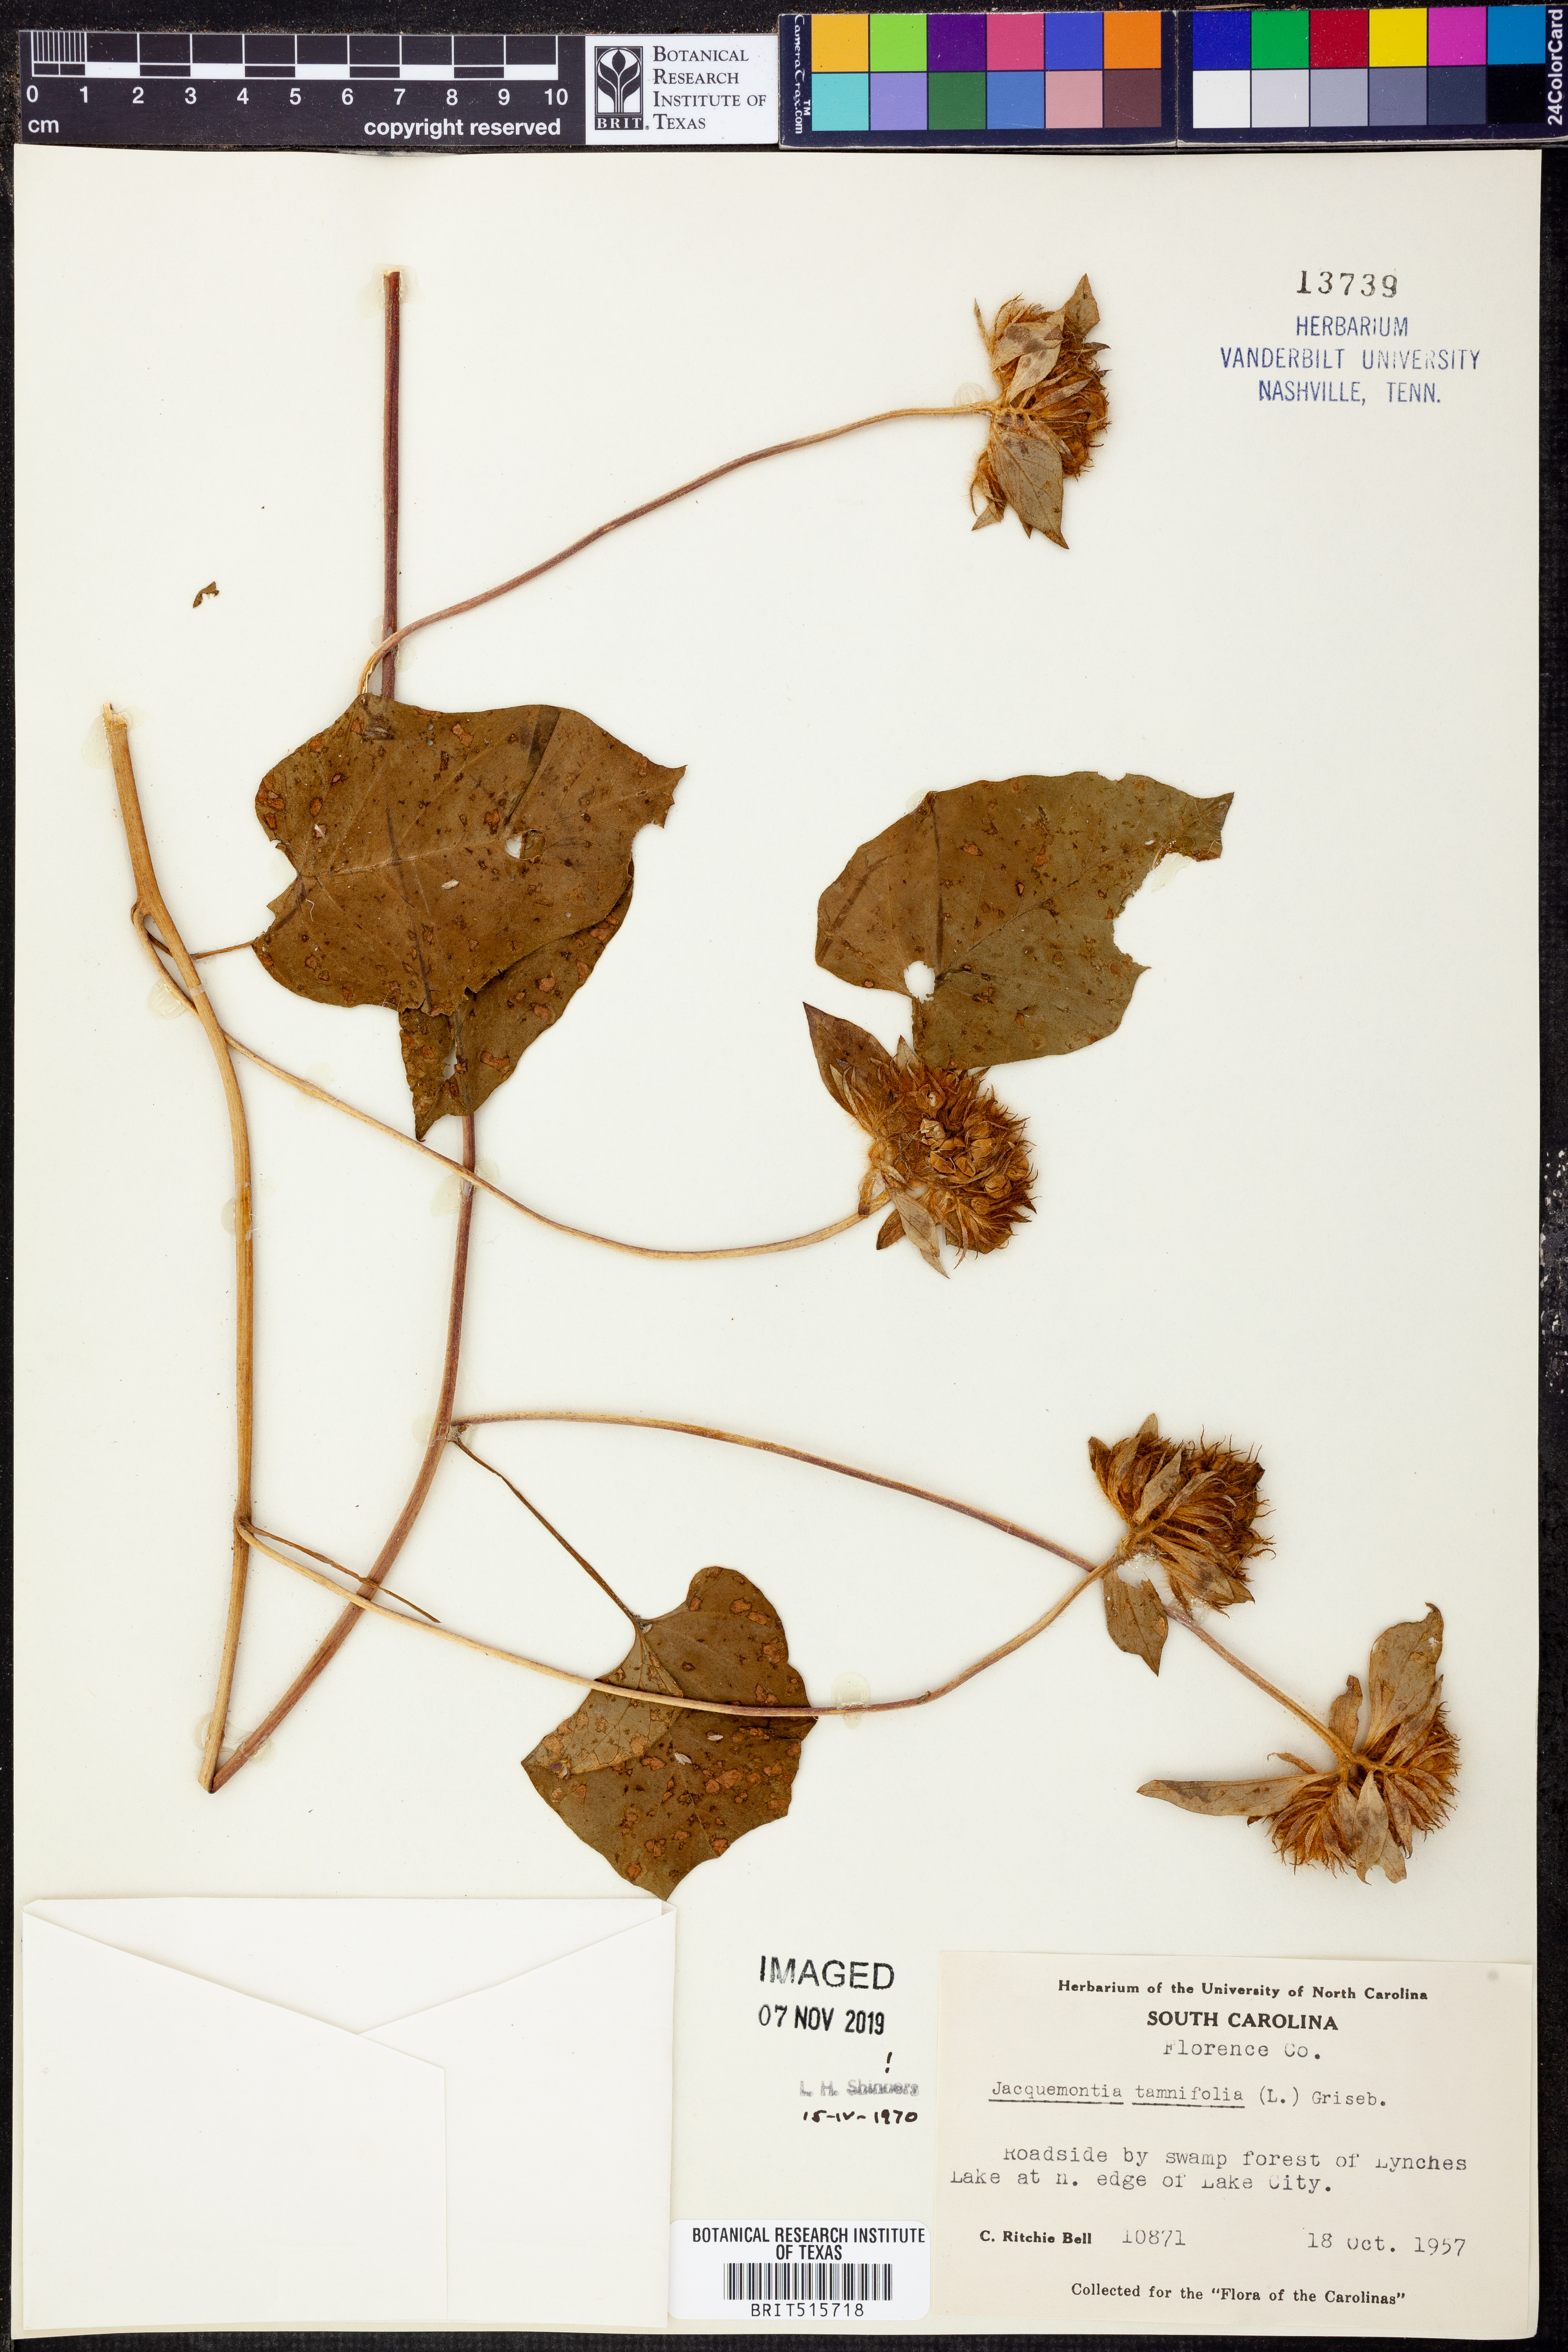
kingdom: Plantae
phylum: Tracheophyta
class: Magnoliopsida
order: Solanales
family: Convolvulaceae
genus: Jacquemontia
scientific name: Jacquemontia tamnifolia
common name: Hairy clustervine
